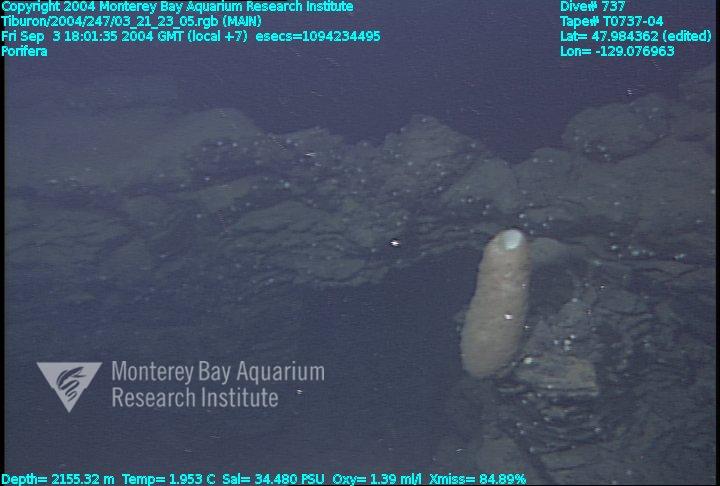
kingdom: Animalia
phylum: Porifera
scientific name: Porifera
